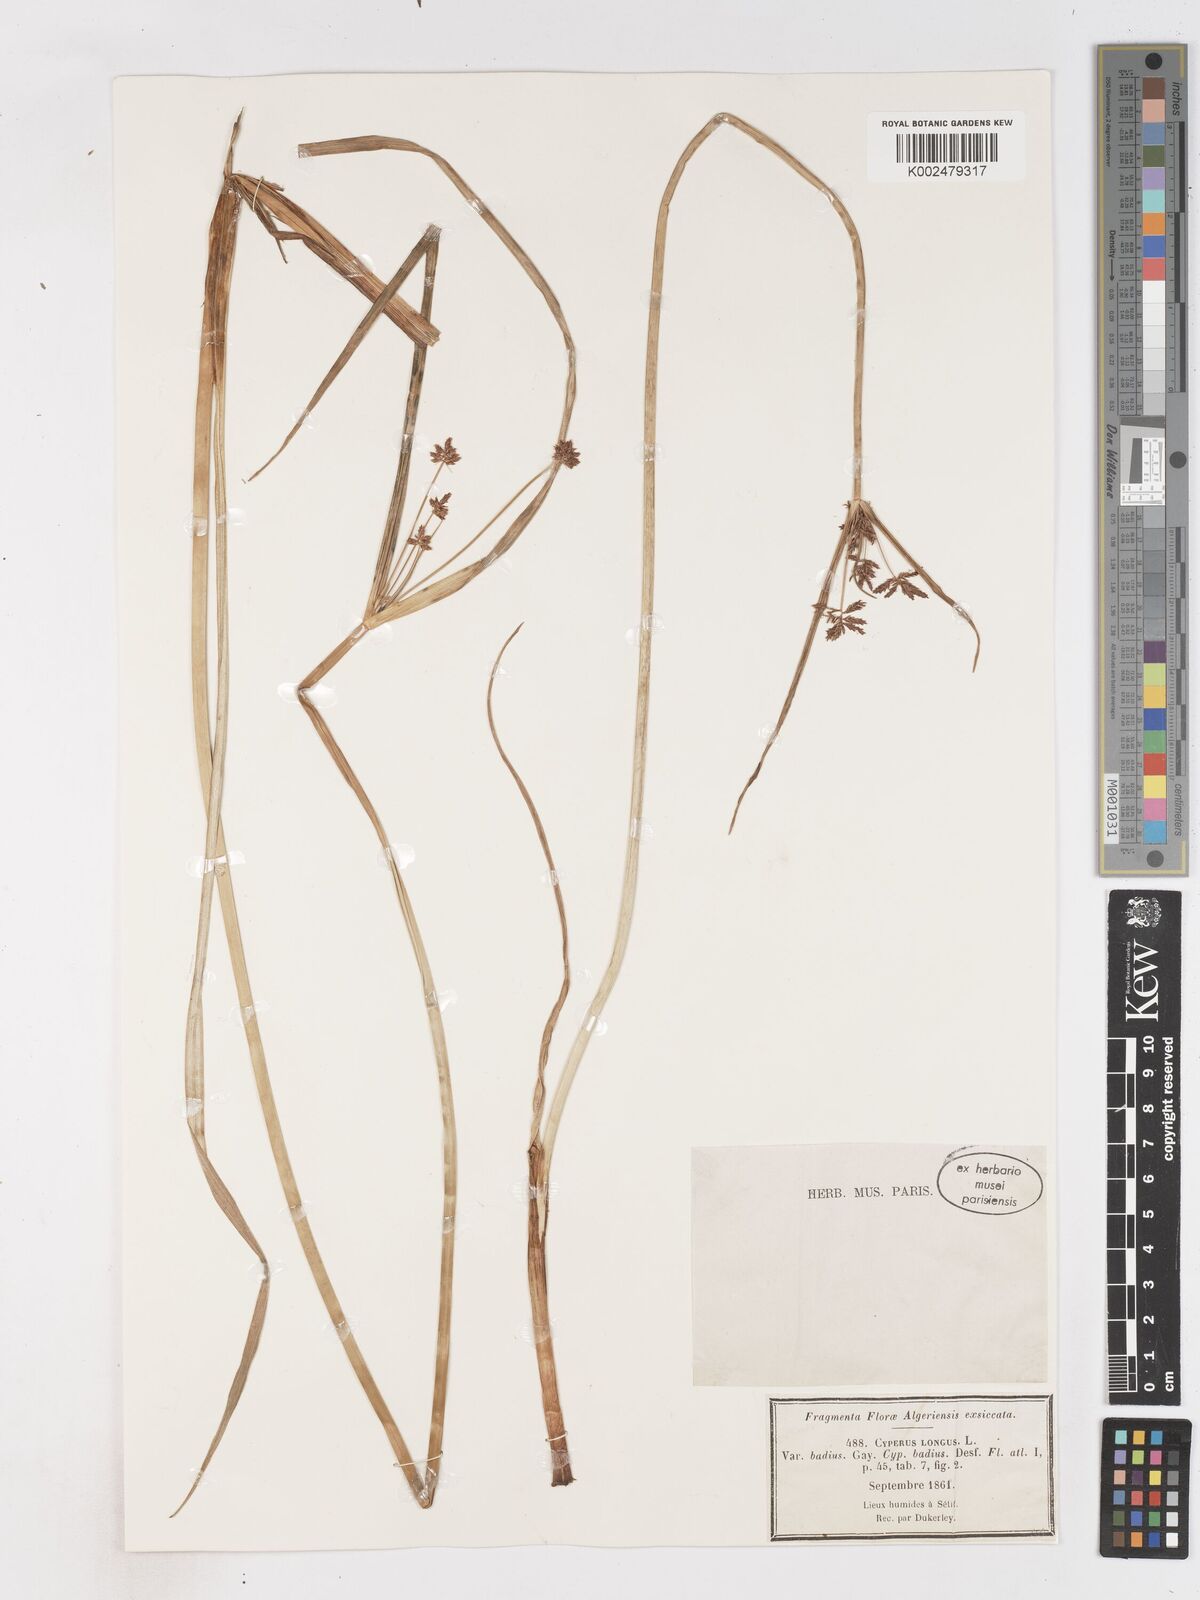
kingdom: Plantae
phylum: Tracheophyta
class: Liliopsida
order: Poales
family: Cyperaceae
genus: Cyperus
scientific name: Cyperus longus
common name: Galingale
